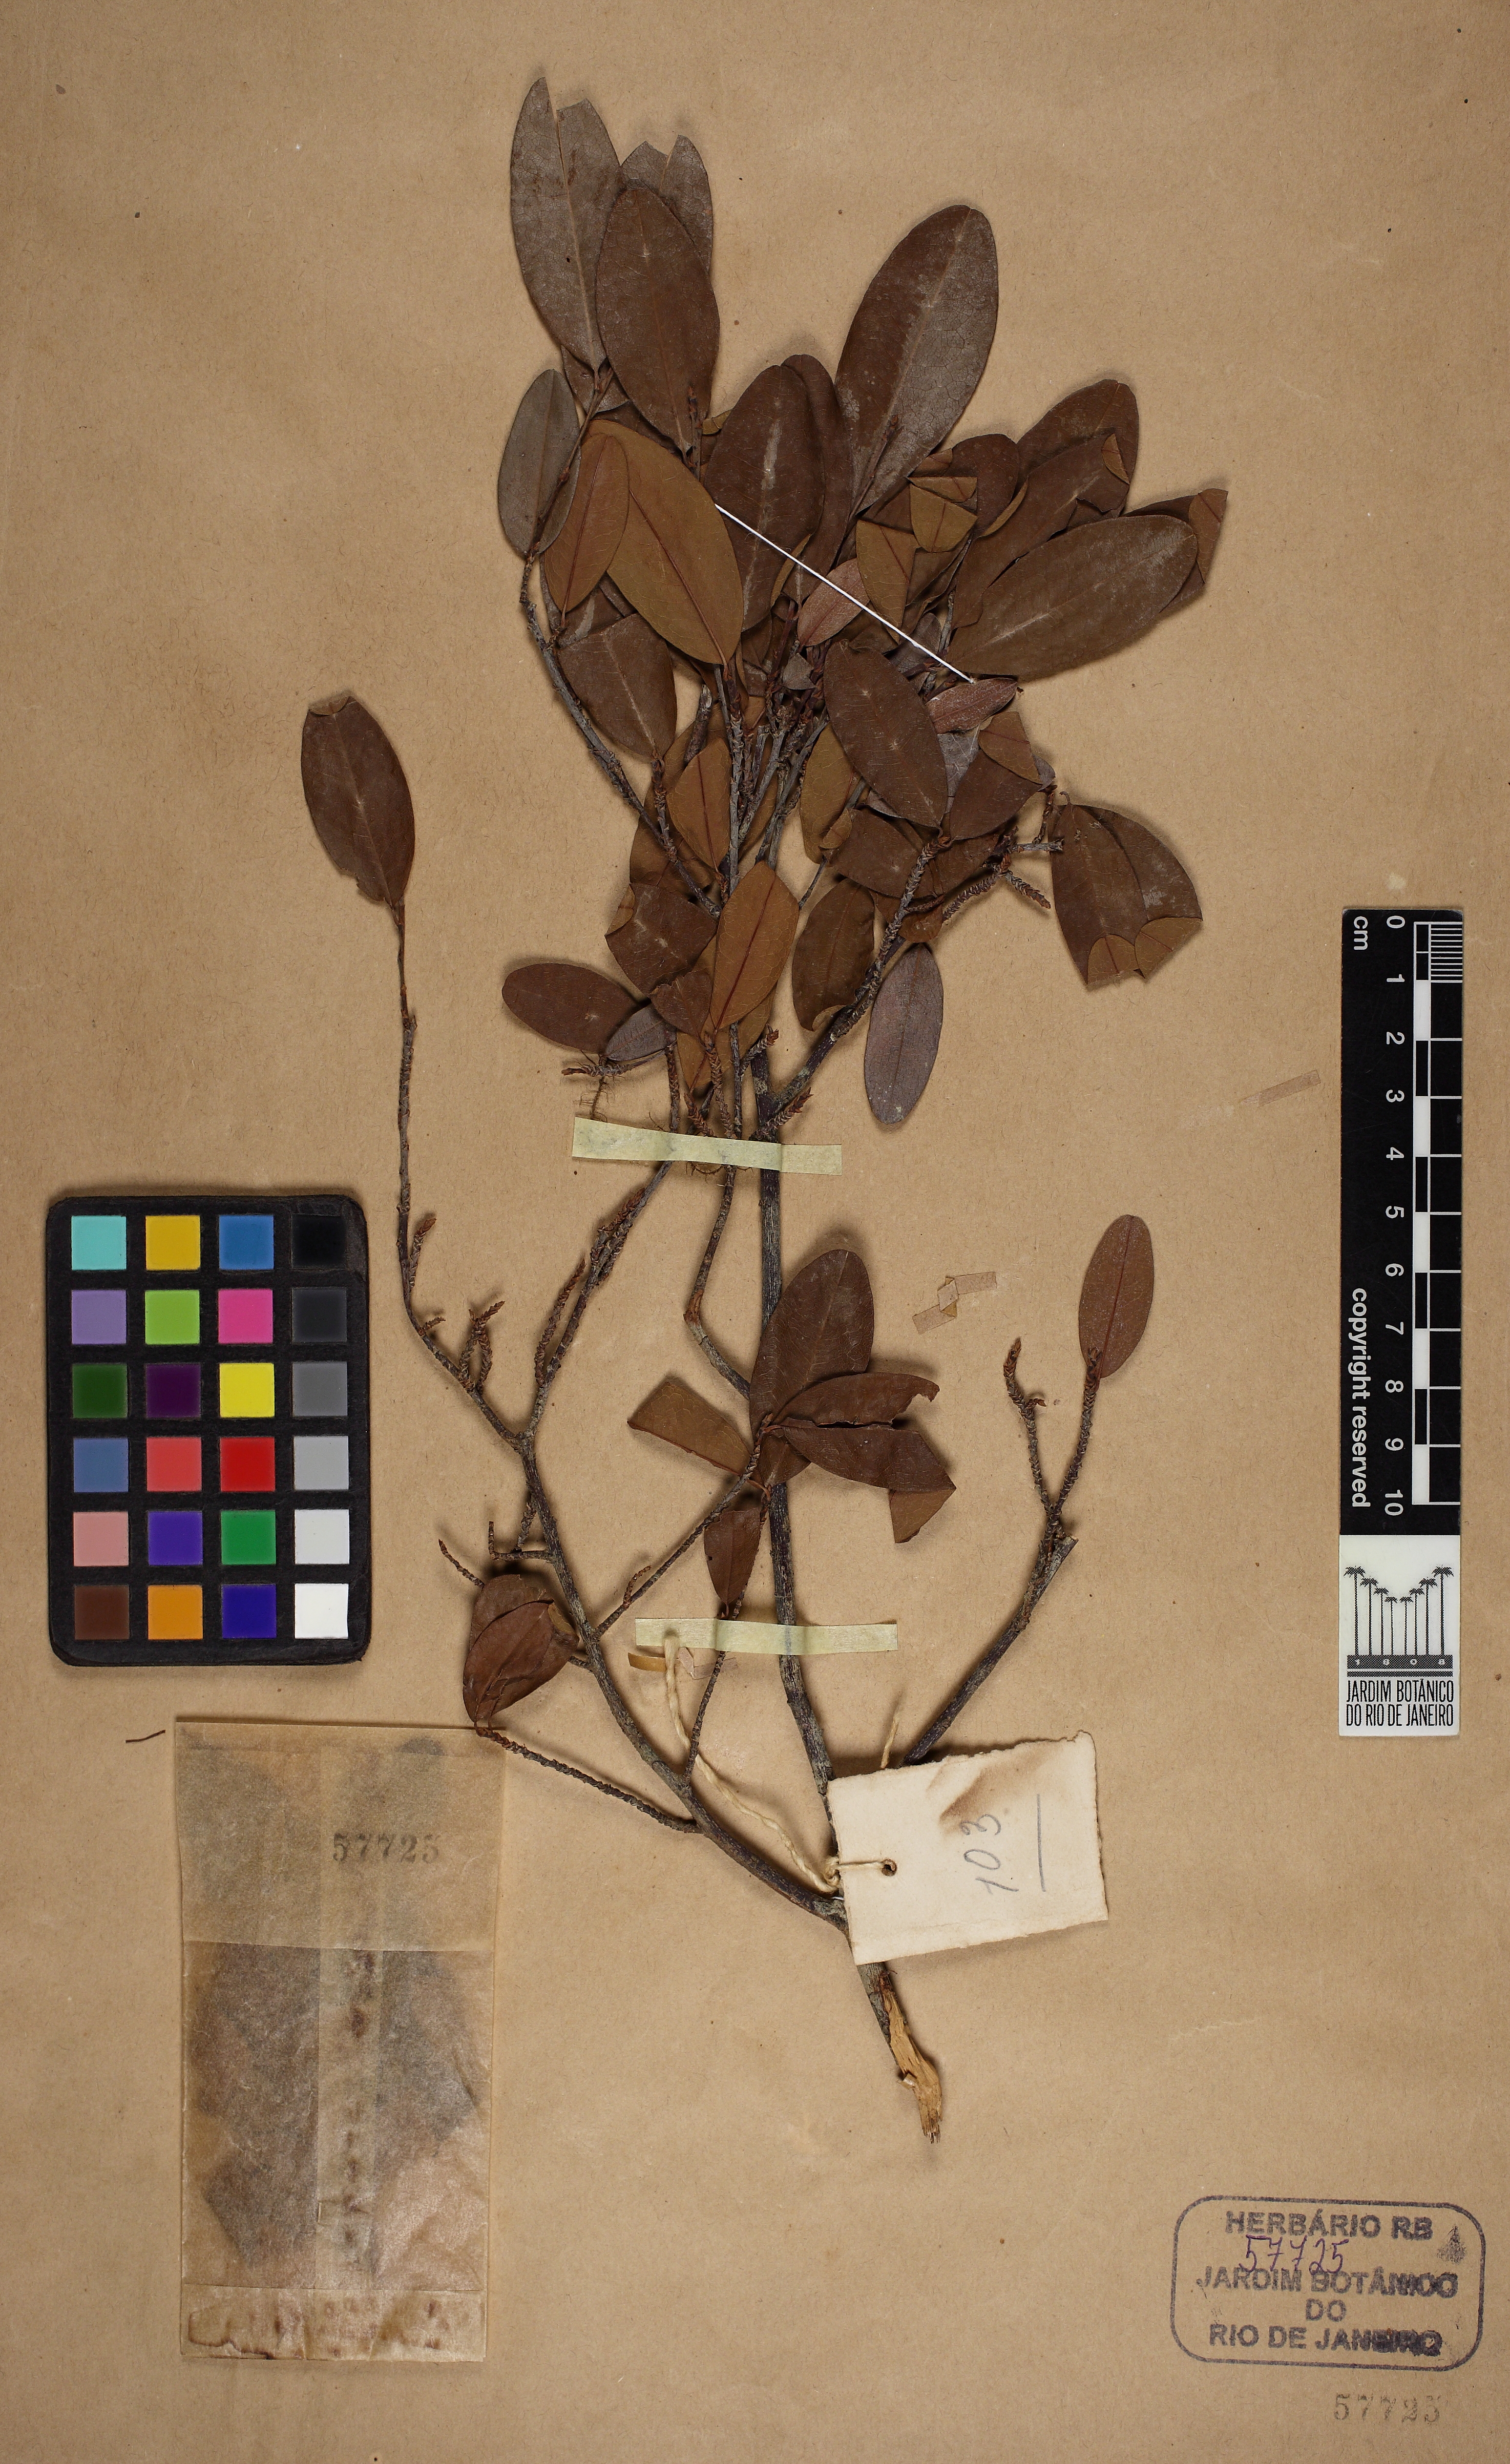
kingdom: Plantae
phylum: Tracheophyta
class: Magnoliopsida
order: Malpighiales
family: Erythroxylaceae
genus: Erythroxylum
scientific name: Erythroxylum myrsinites
